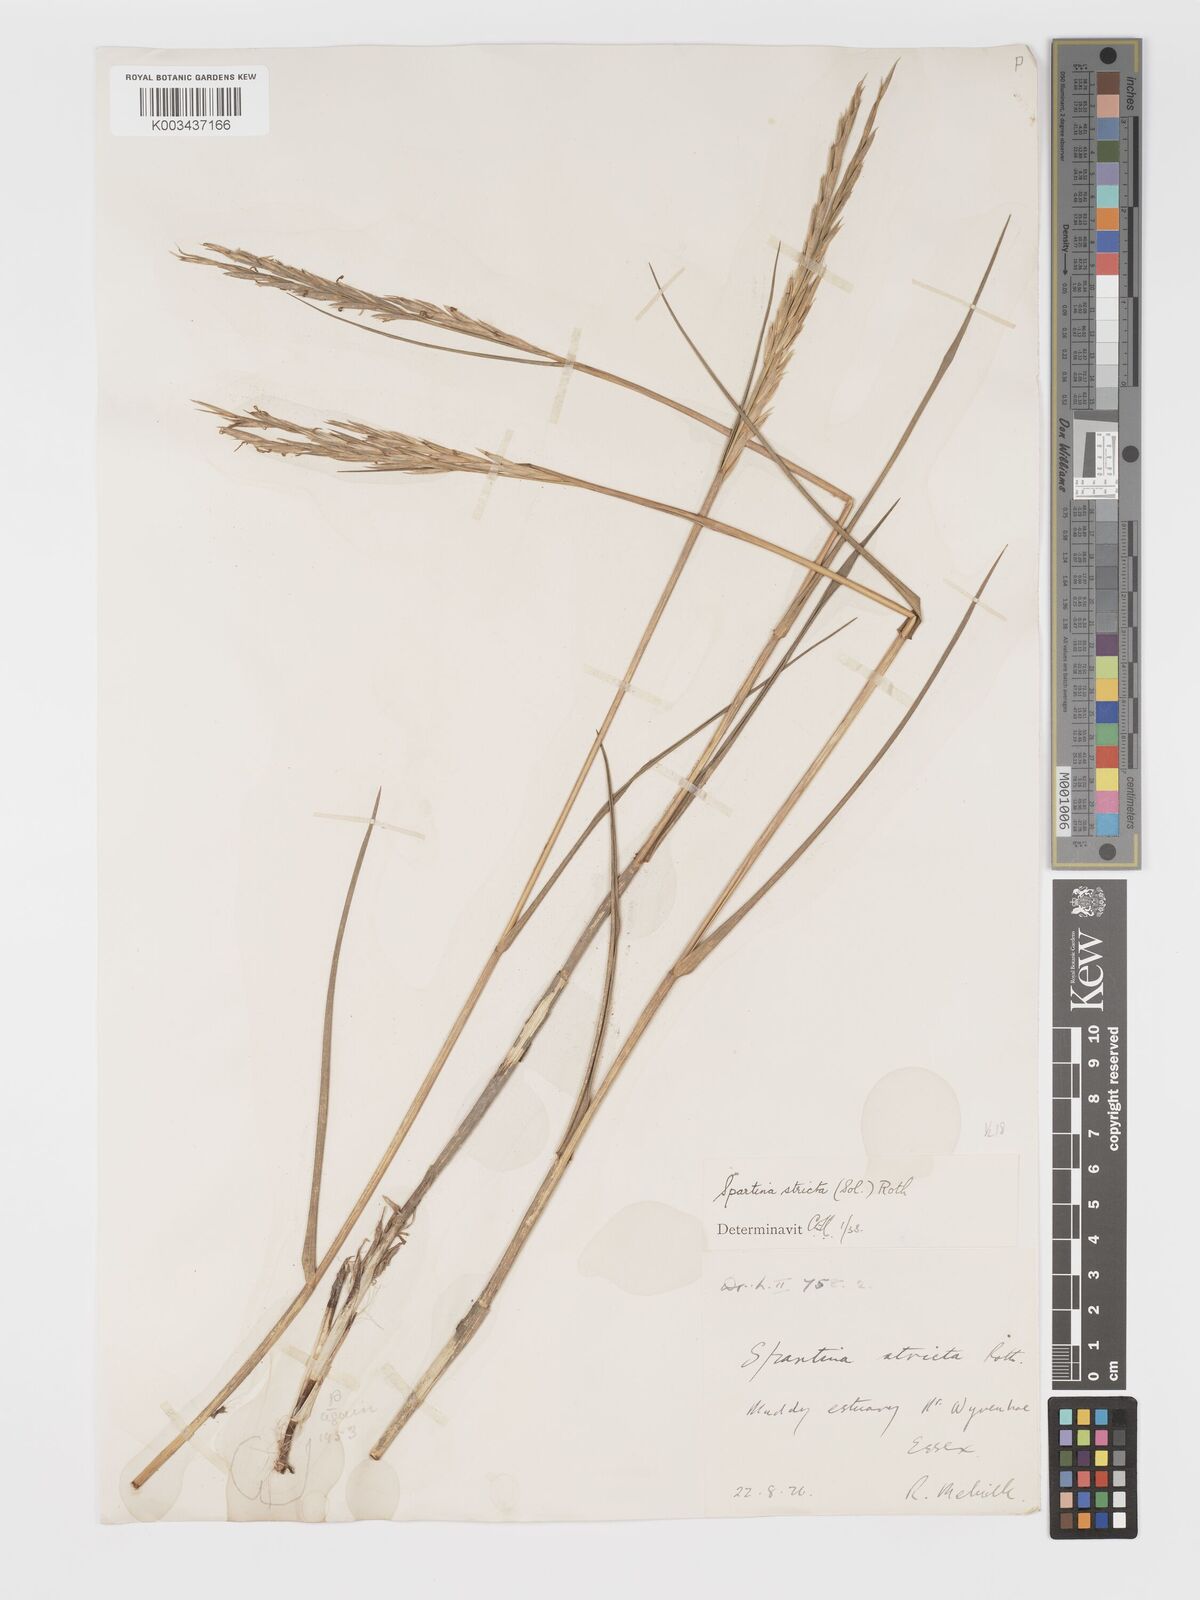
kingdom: Plantae
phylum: Tracheophyta
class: Liliopsida
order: Poales
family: Poaceae
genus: Sporobolus
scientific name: Sporobolus maritimus
